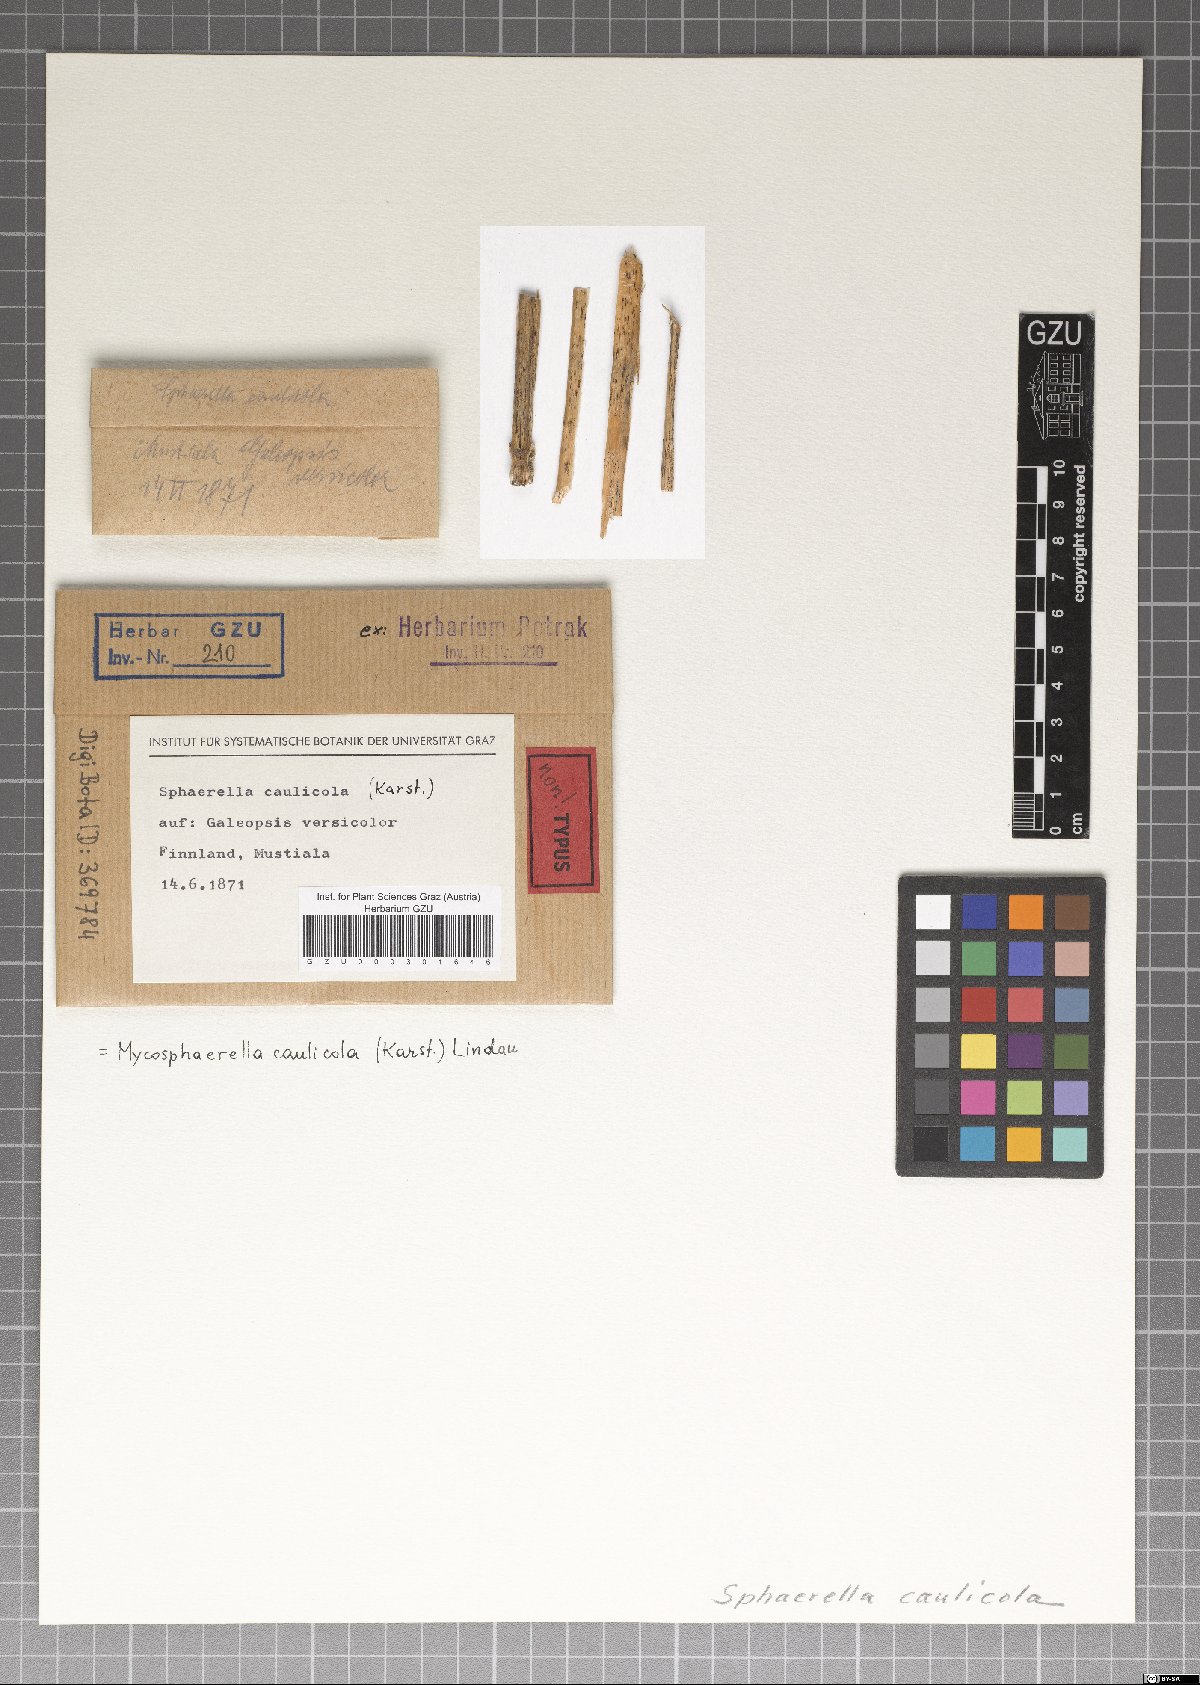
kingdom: Fungi
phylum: Ascomycota
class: Dothideomycetes
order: Mycosphaerellales
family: Mycosphaerellaceae
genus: Mycosphaerella
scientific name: Mycosphaerella caulicola
